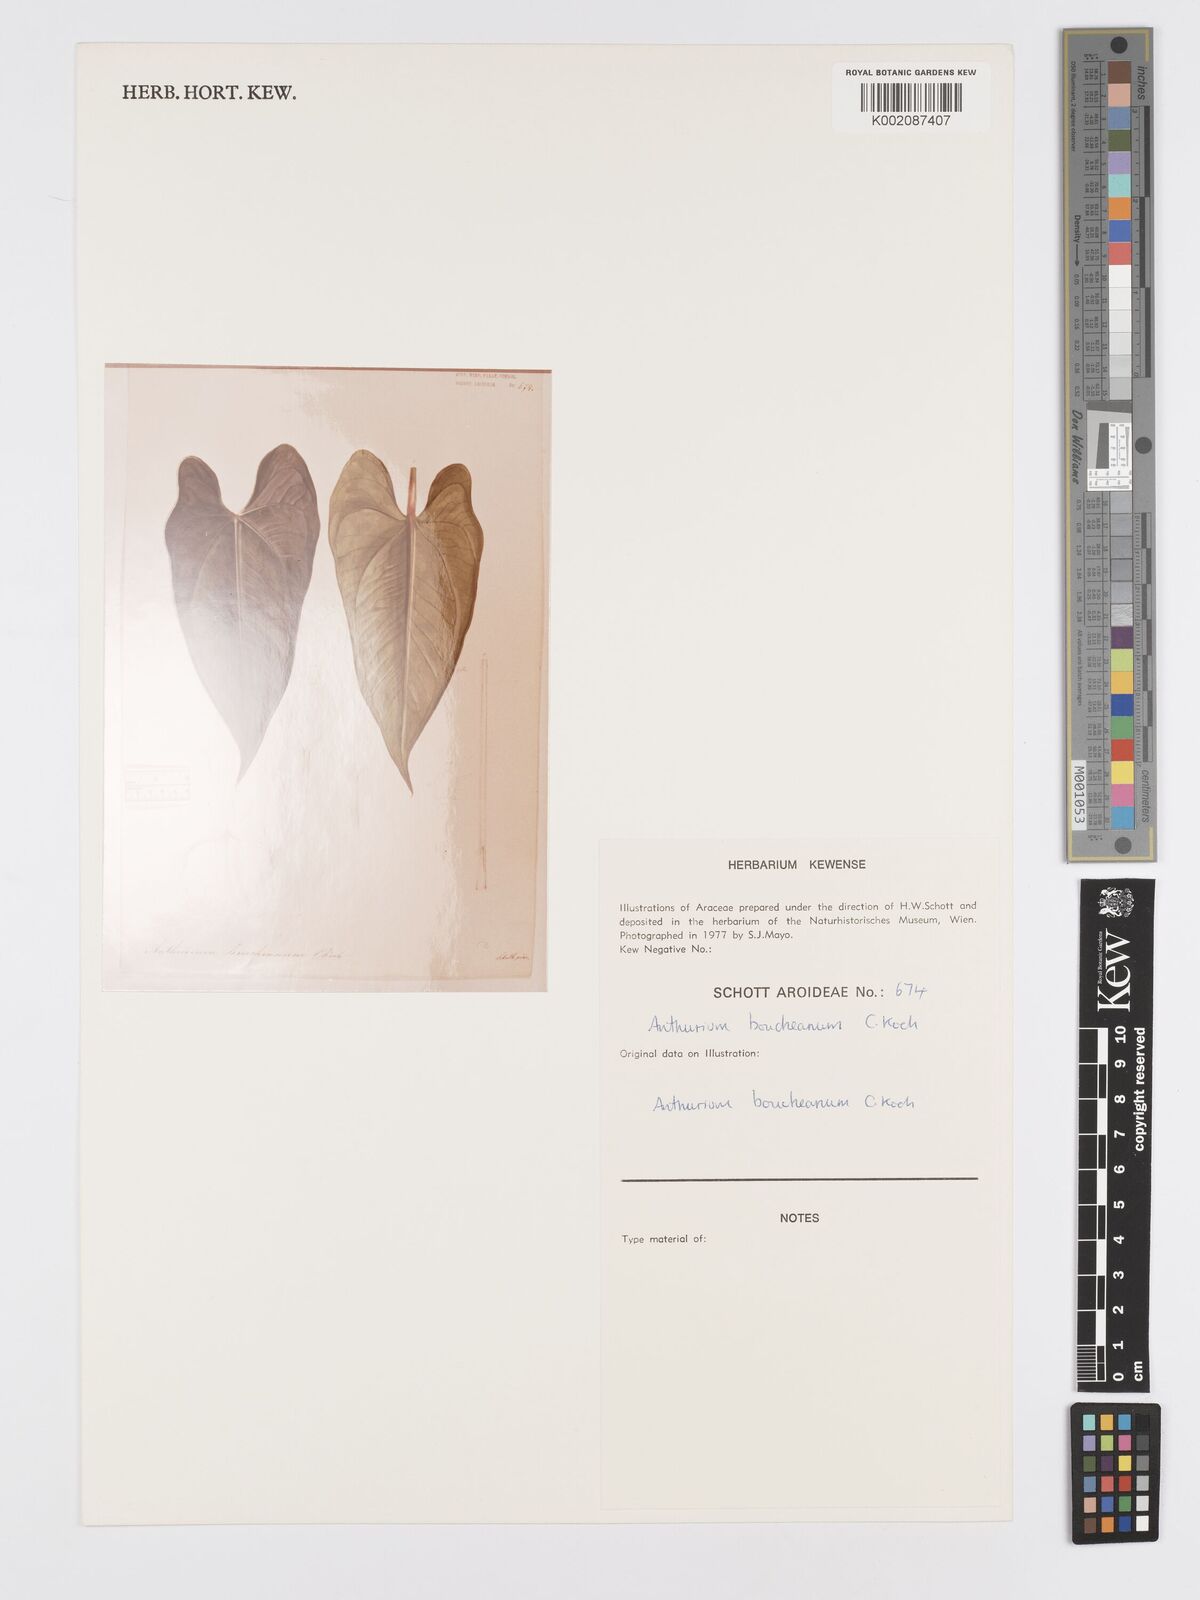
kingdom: Plantae
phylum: Tracheophyta
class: Liliopsida
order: Alismatales
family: Araceae
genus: Anthurium
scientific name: Anthurium cartilagineum
